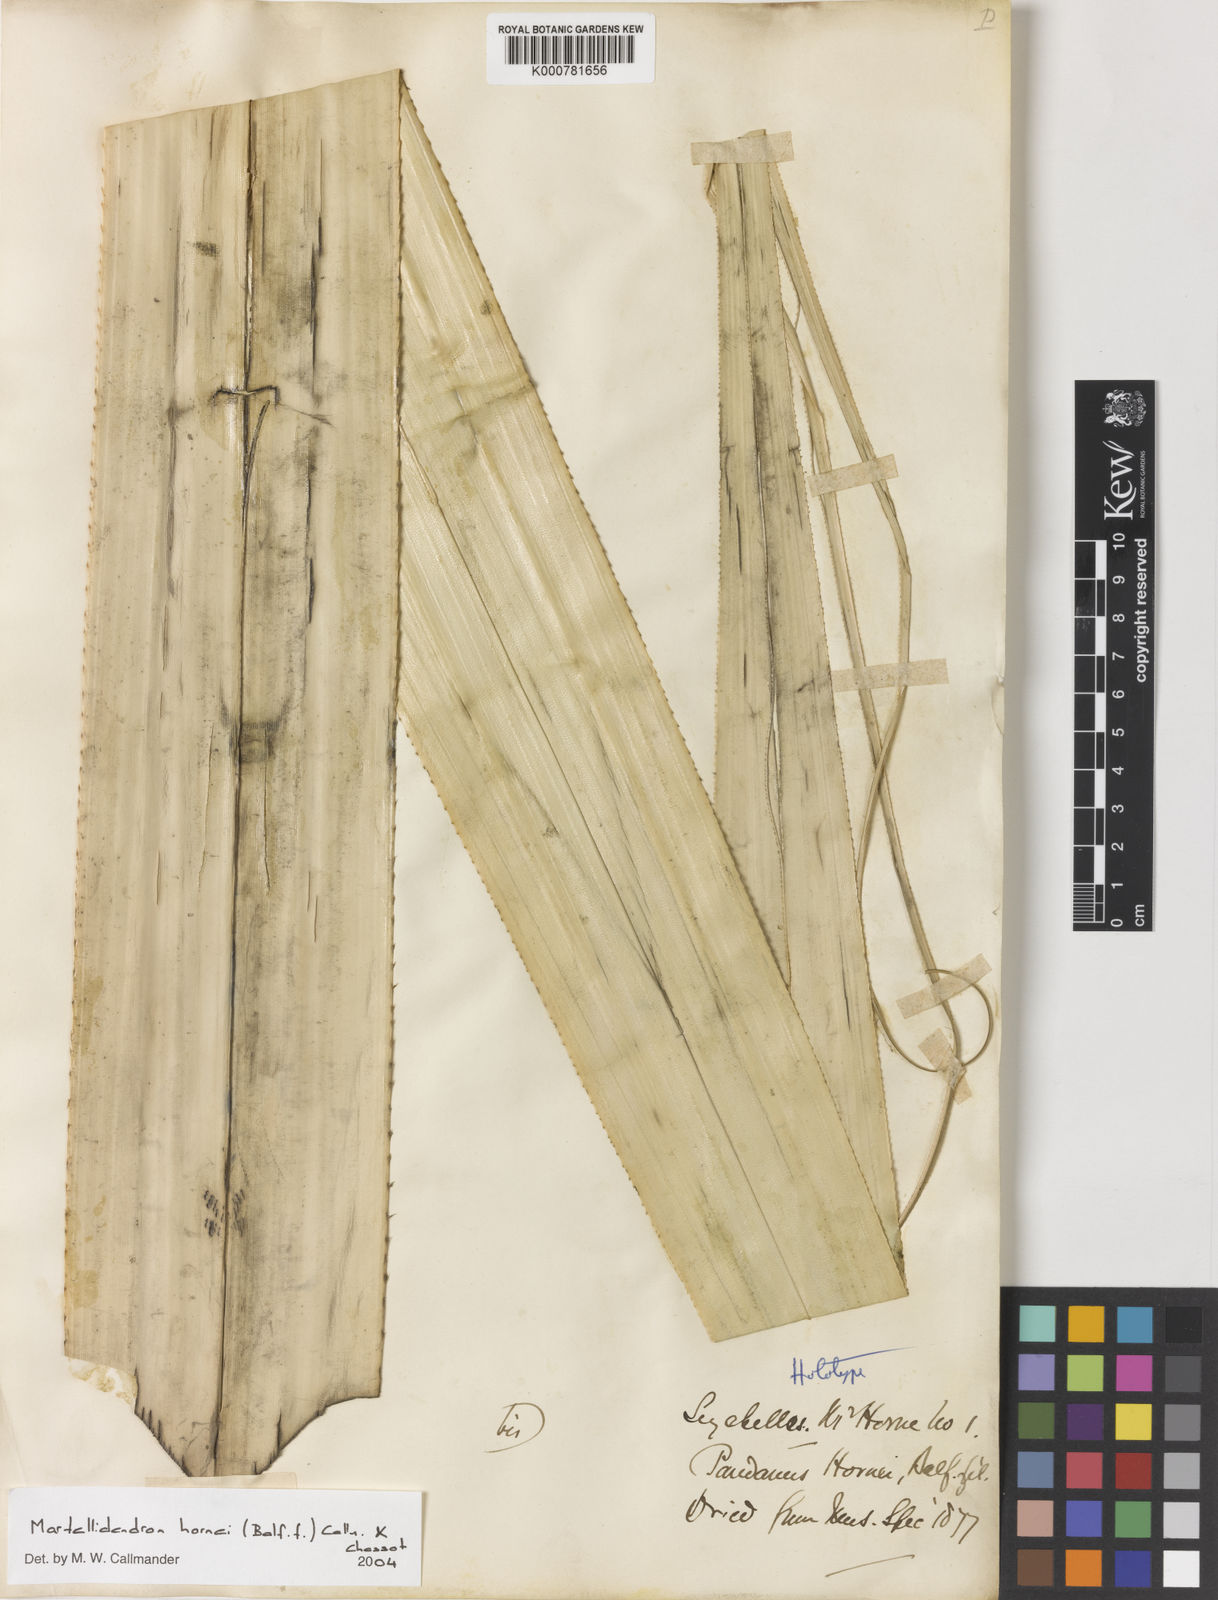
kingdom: Plantae
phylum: Tracheophyta
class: Liliopsida
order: Pandanales
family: Pandanaceae
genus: Martellidendron
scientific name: Martellidendron hornei
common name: Horne’s pandanus
